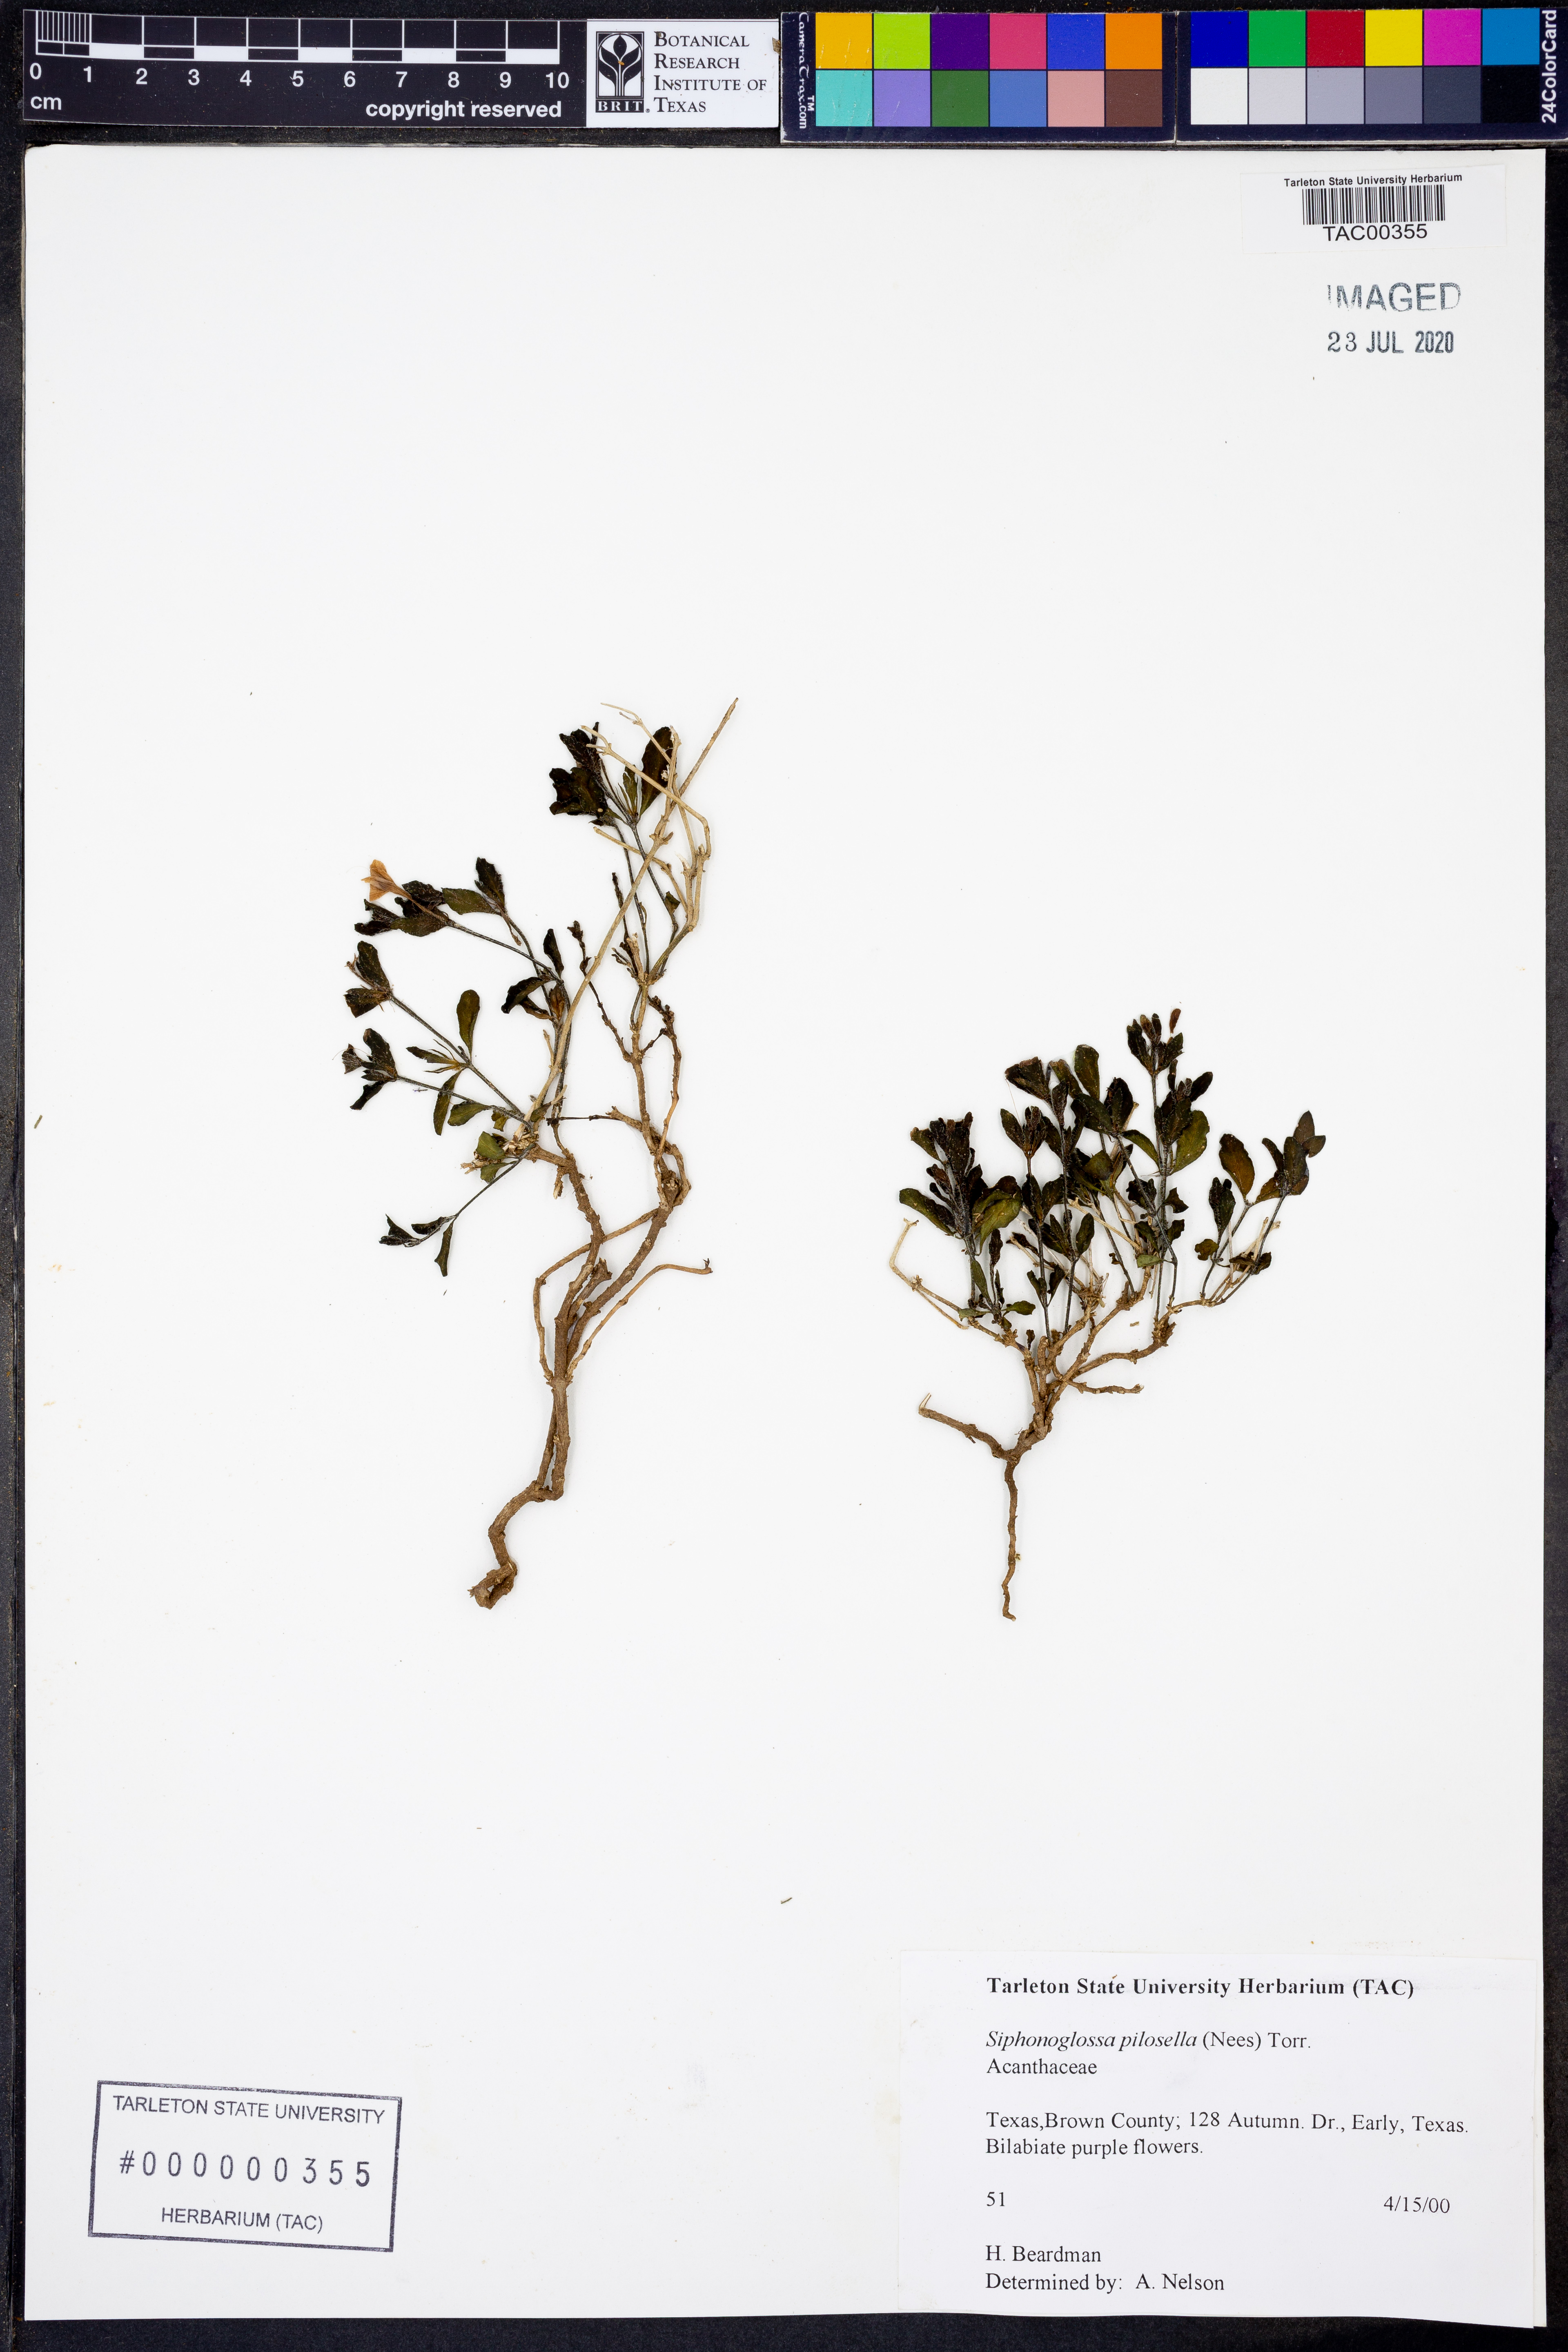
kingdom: Plantae
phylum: Tracheophyta
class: Magnoliopsida
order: Lamiales
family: Acanthaceae
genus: Justicia
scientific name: Justicia pilosella
